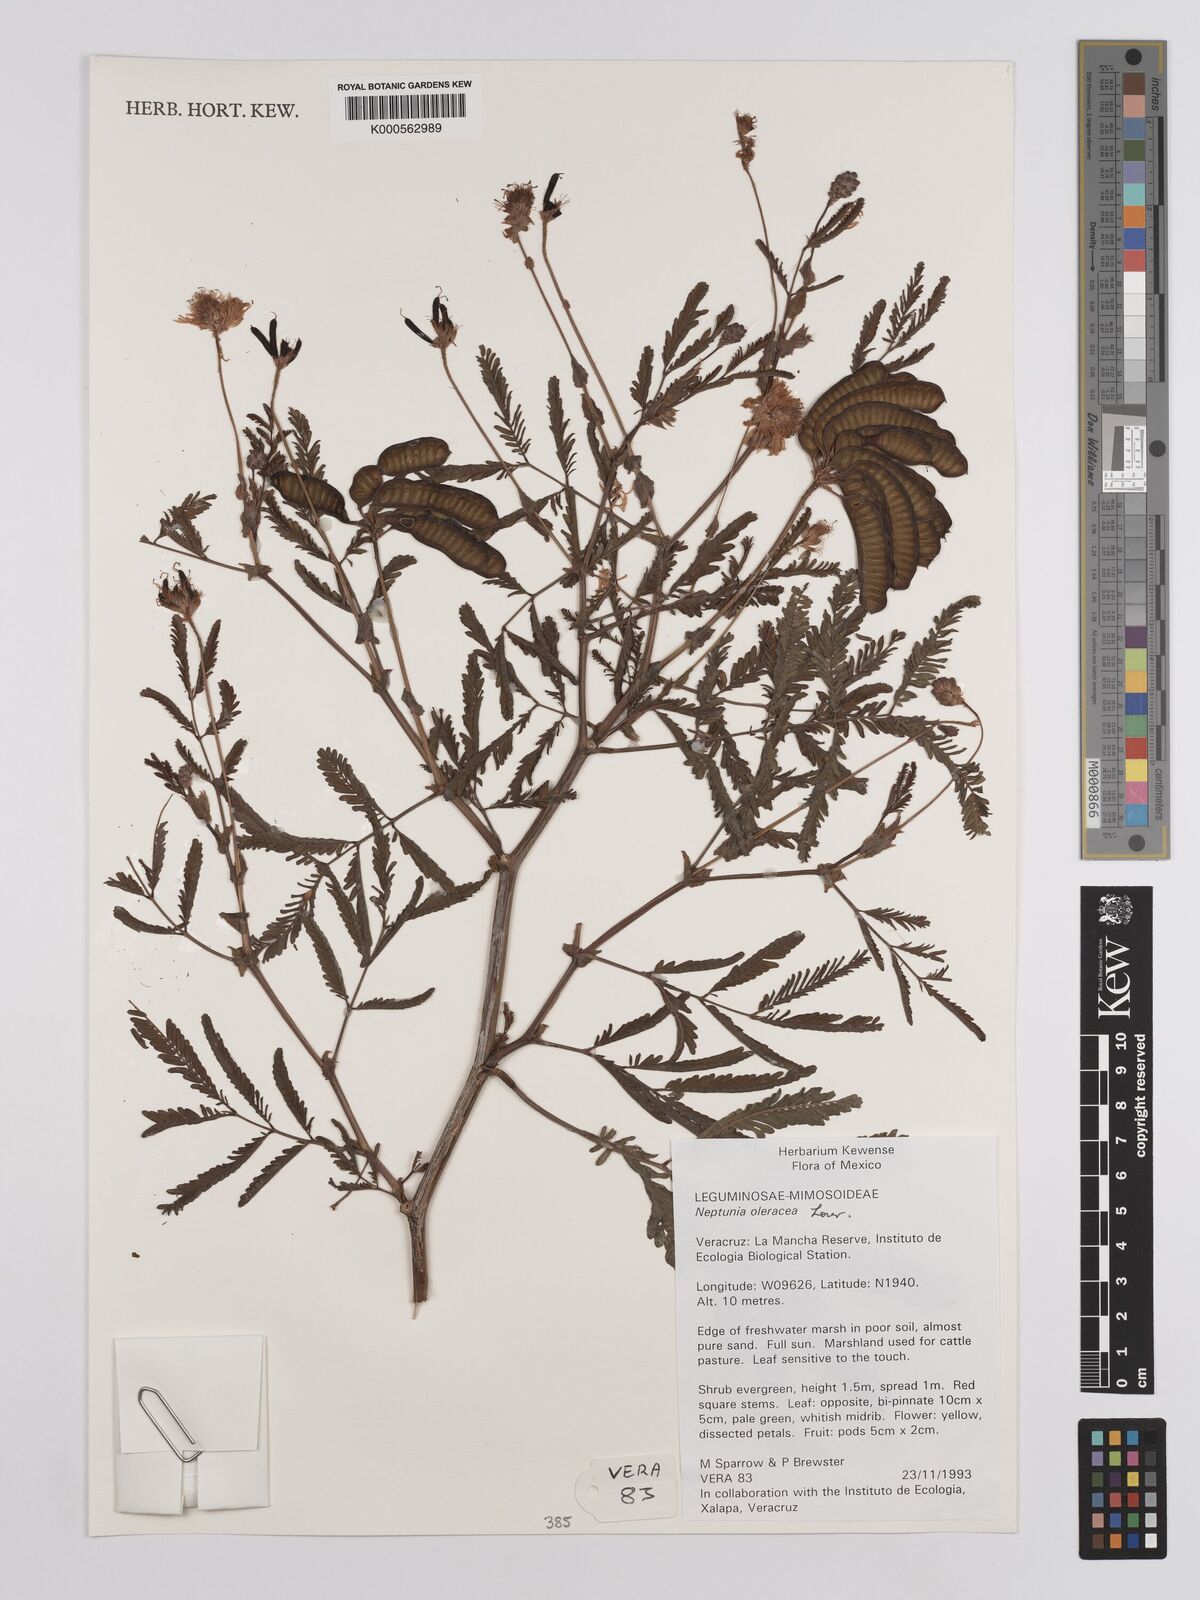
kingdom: Plantae
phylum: Tracheophyta
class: Magnoliopsida
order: Fabales
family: Fabaceae
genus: Neptunia
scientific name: Neptunia prostrata
